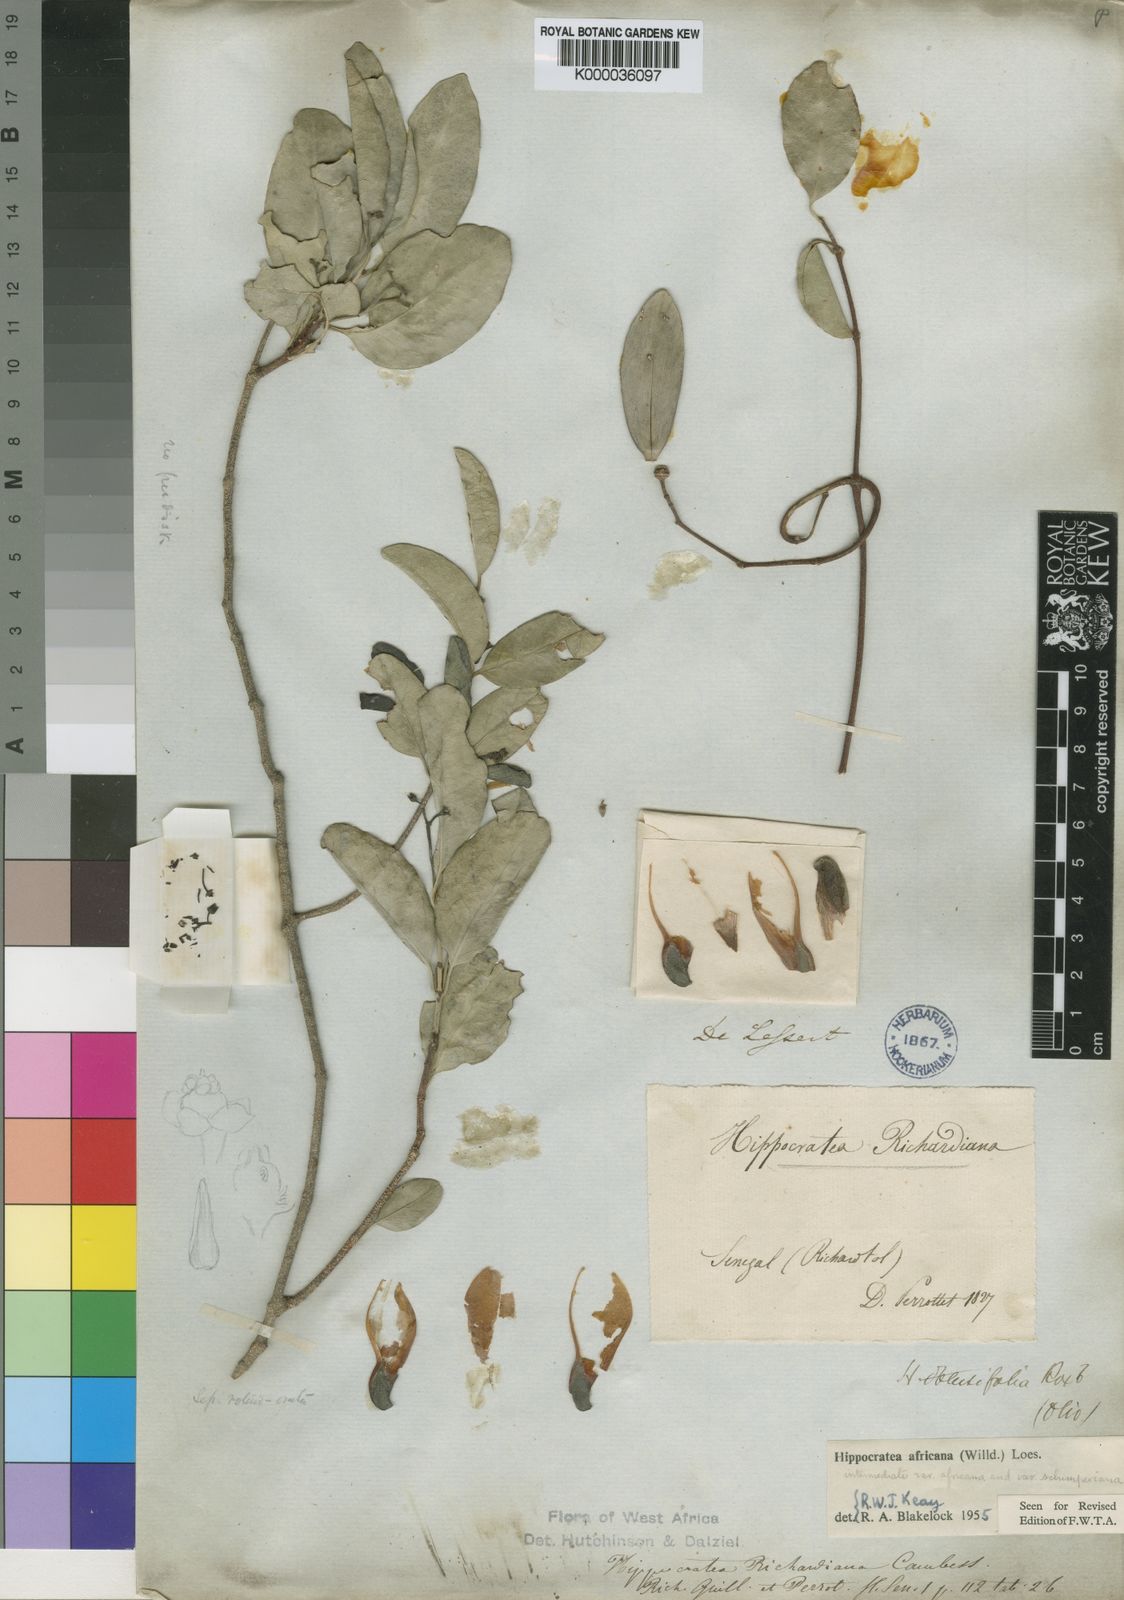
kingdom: Plantae
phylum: Tracheophyta
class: Magnoliopsida
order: Celastrales
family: Celastraceae
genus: Loeseneriella
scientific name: Loeseneriella
